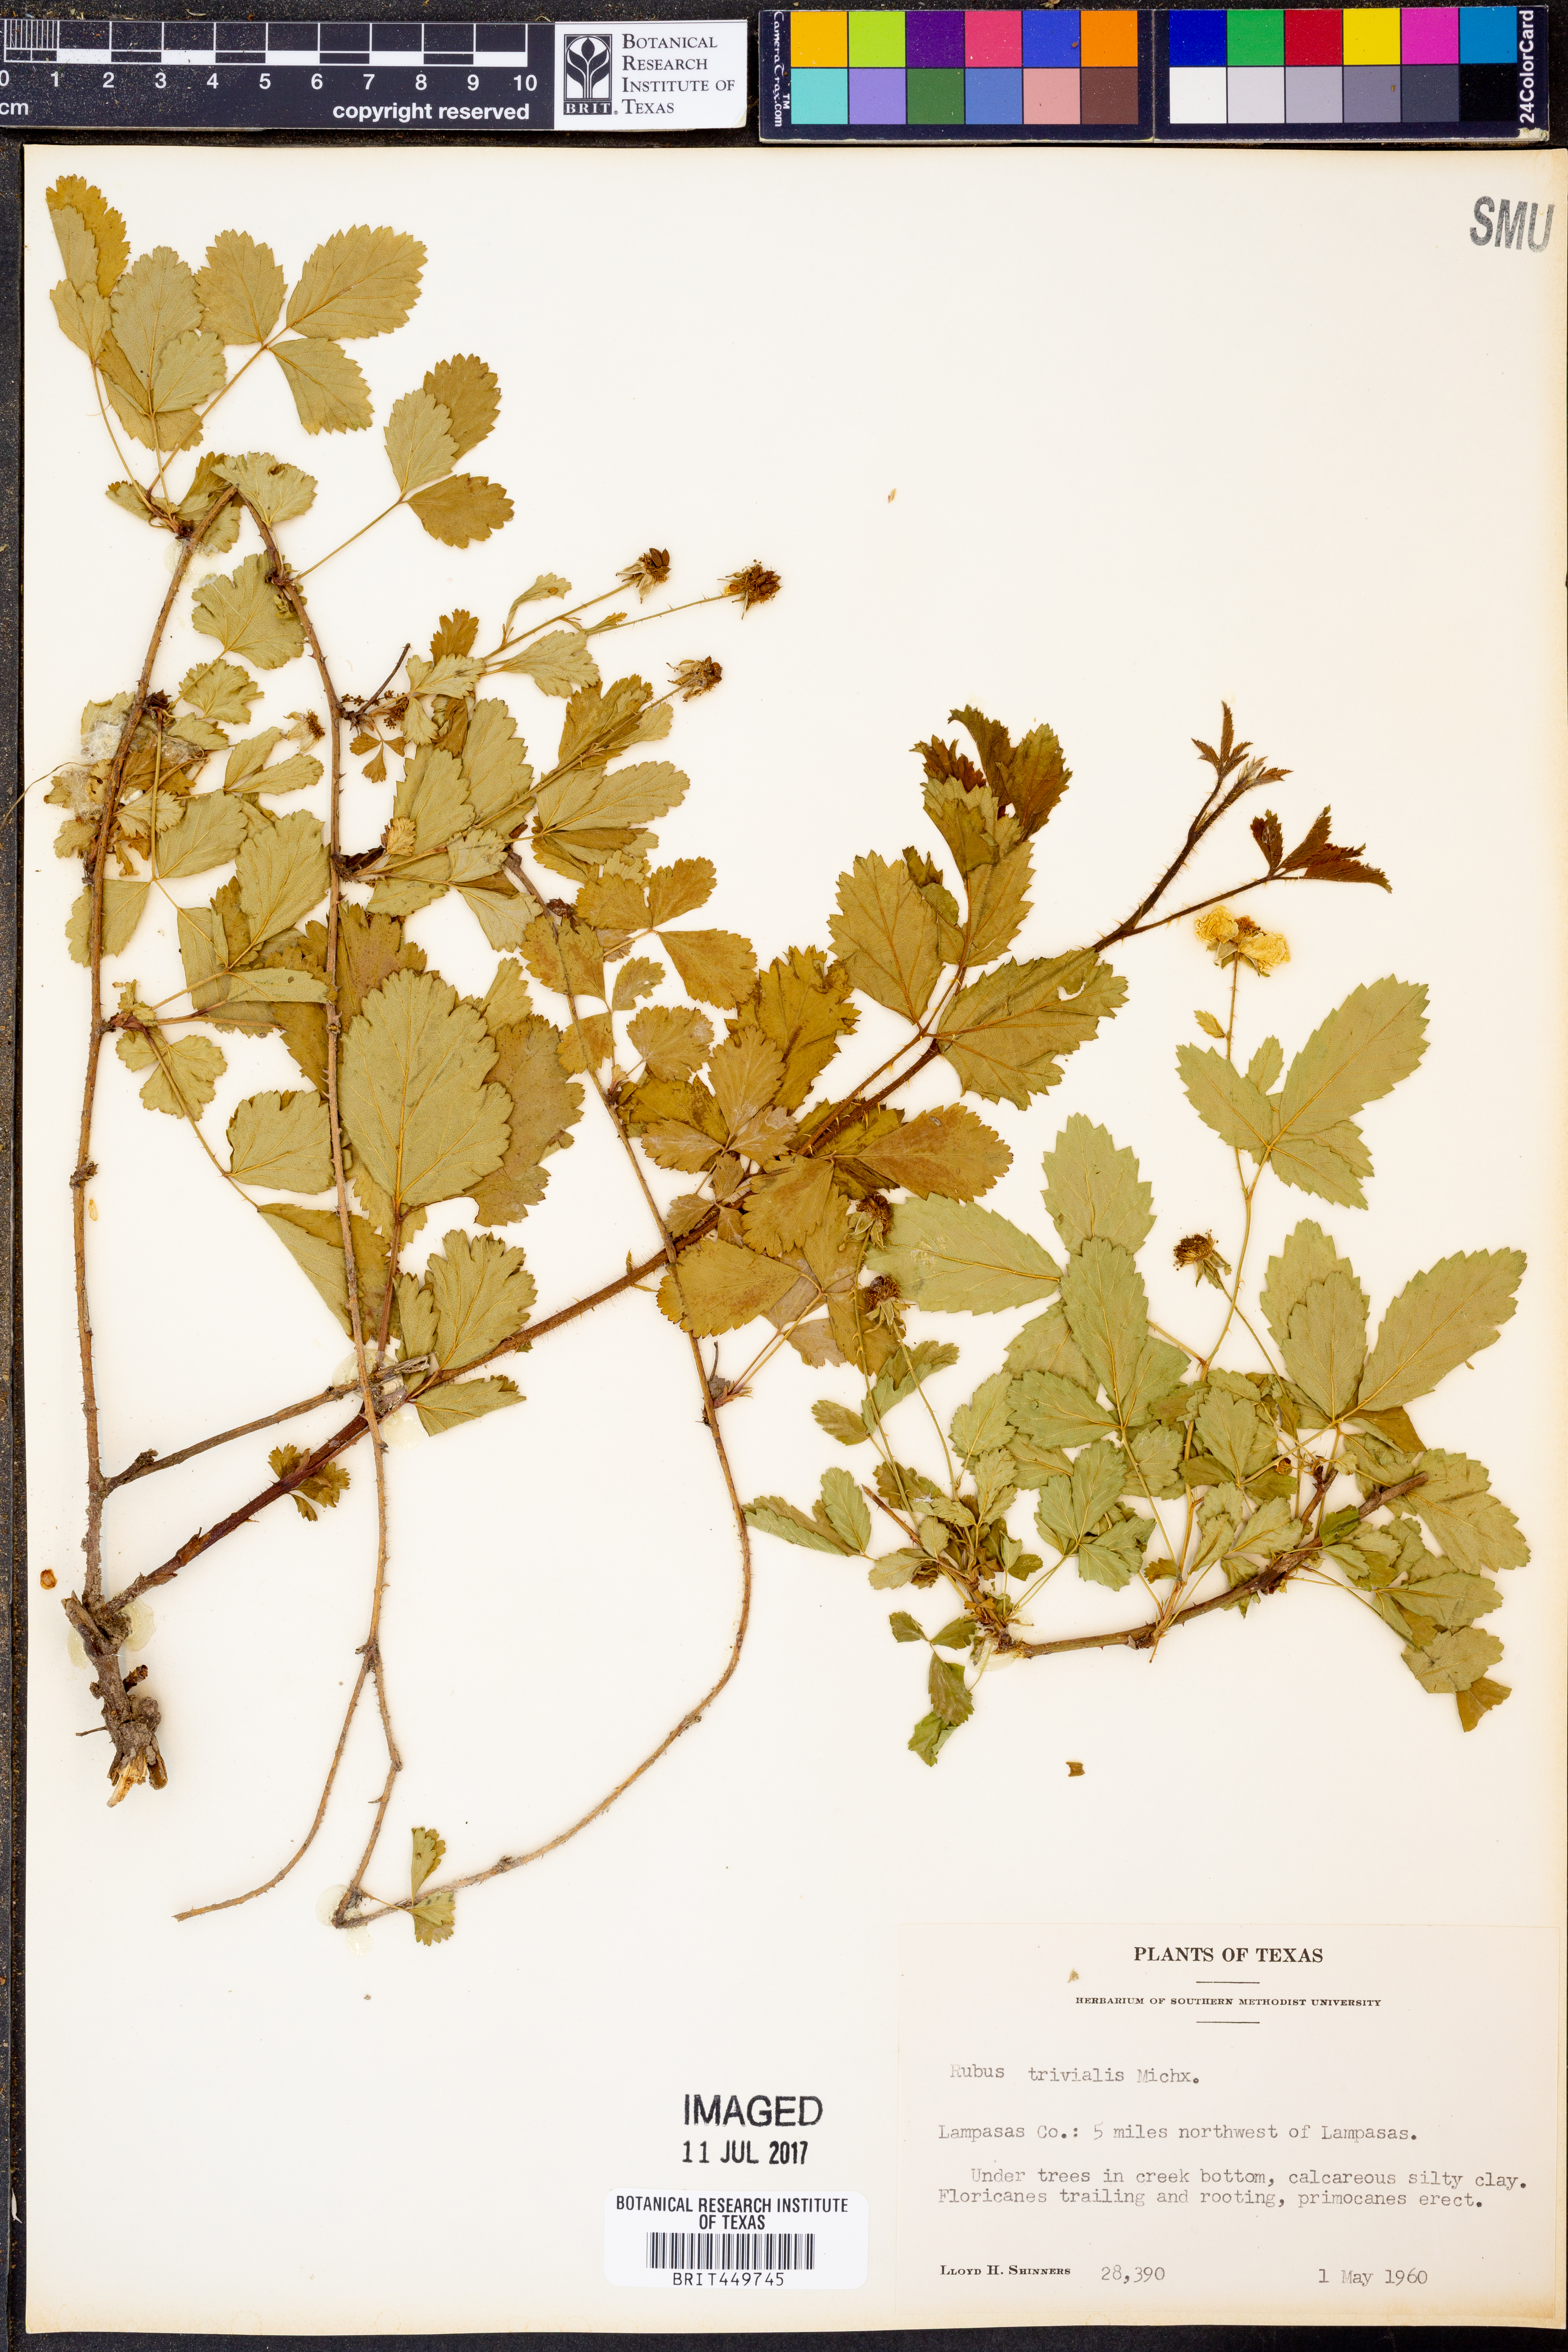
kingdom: Plantae
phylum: Tracheophyta
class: Magnoliopsida
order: Rosales
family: Rosaceae
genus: Rubus
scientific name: Rubus trivialis
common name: Southern dewberry
